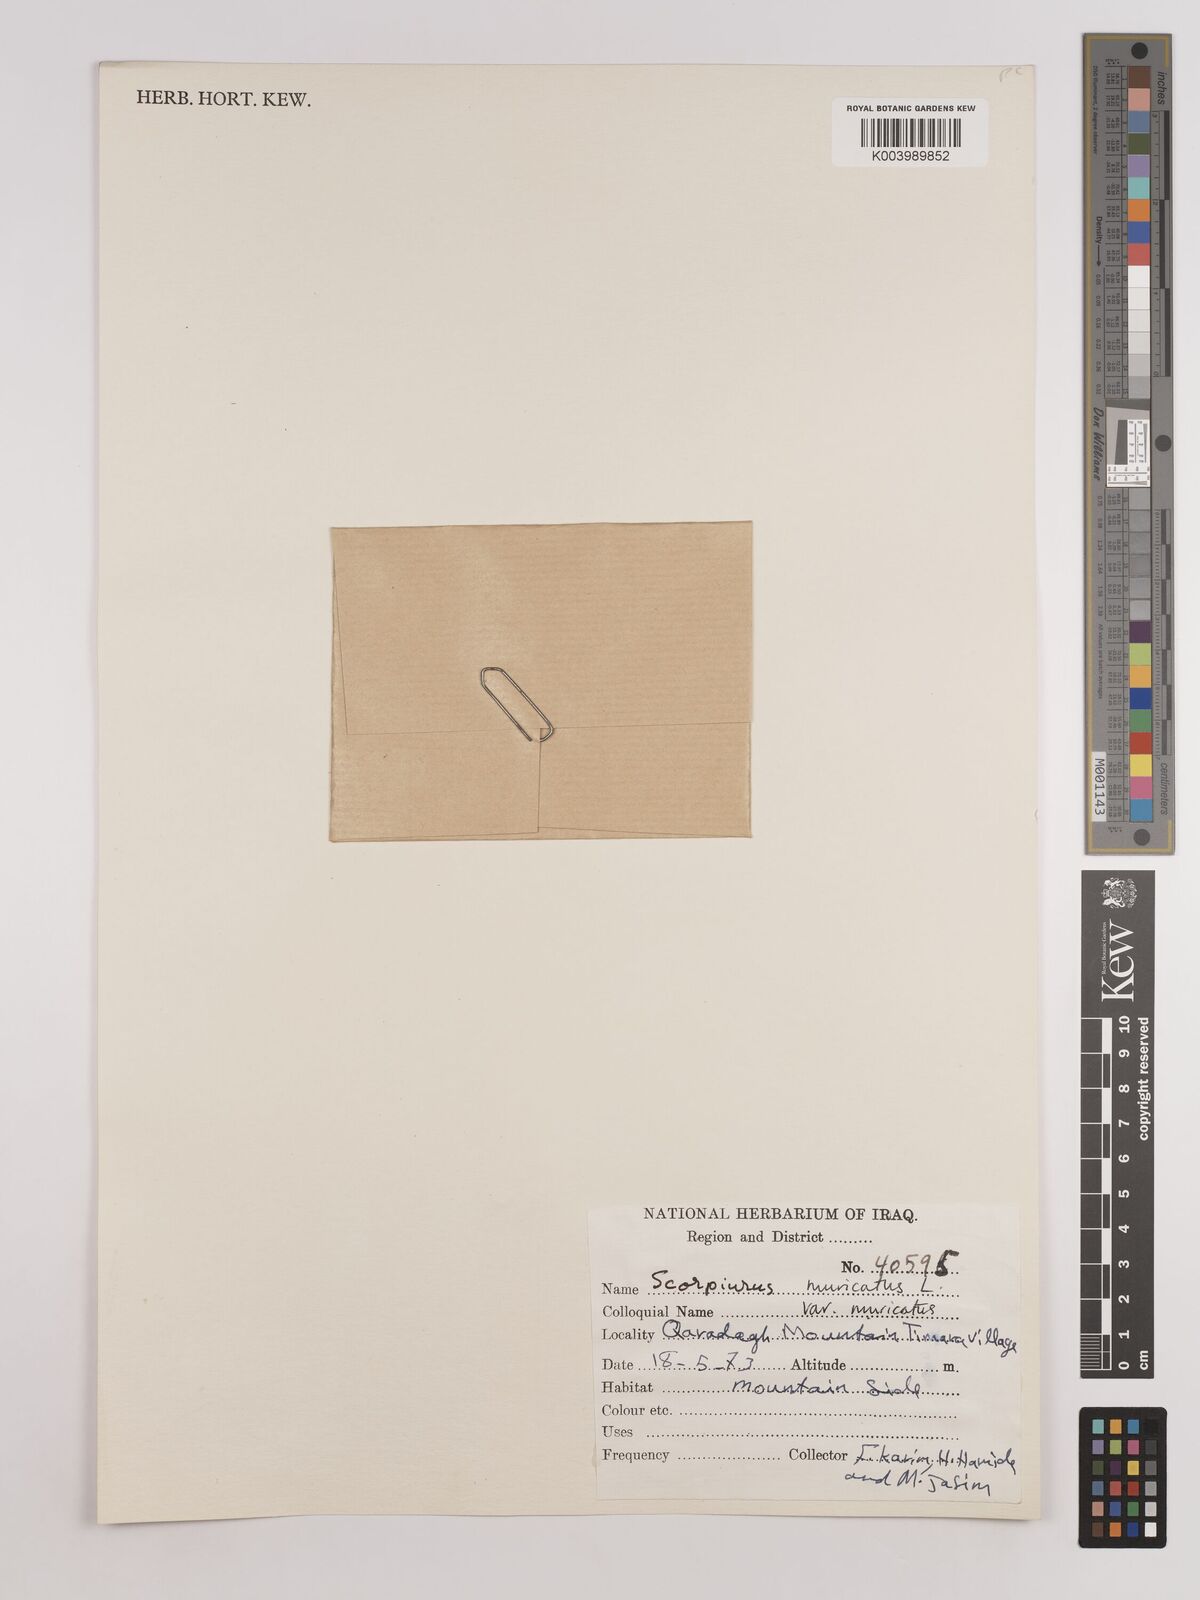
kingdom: Plantae
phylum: Tracheophyta
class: Magnoliopsida
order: Fabales
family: Fabaceae
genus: Scorpiurus
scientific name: Scorpiurus muricatus
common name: Caterpillar-plant
